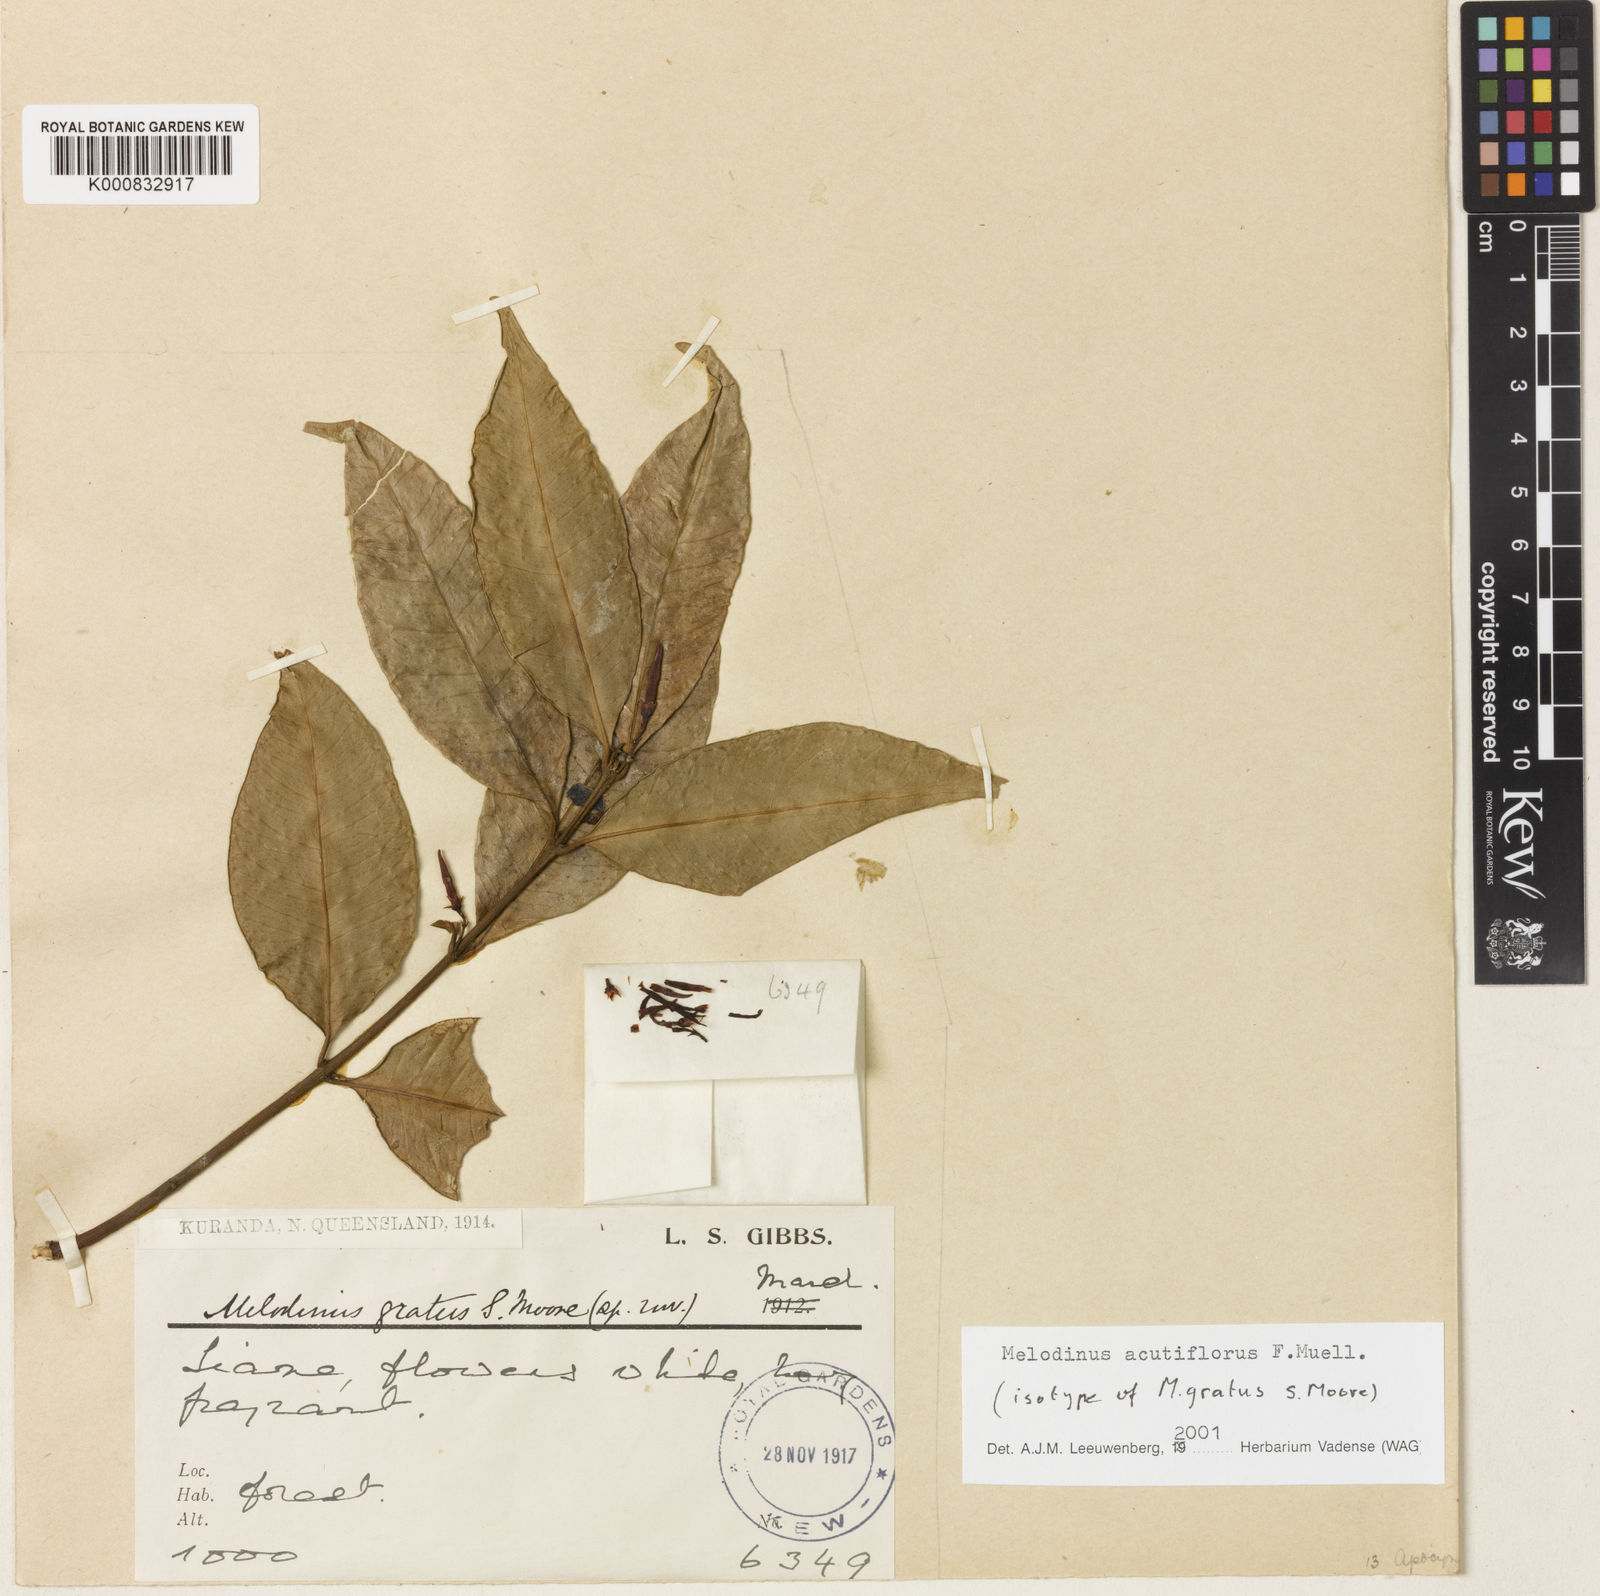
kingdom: Plantae
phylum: Tracheophyta
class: Magnoliopsida
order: Gentianales
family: Apocynaceae
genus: Melodinus
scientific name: Melodinus acutiflorus
